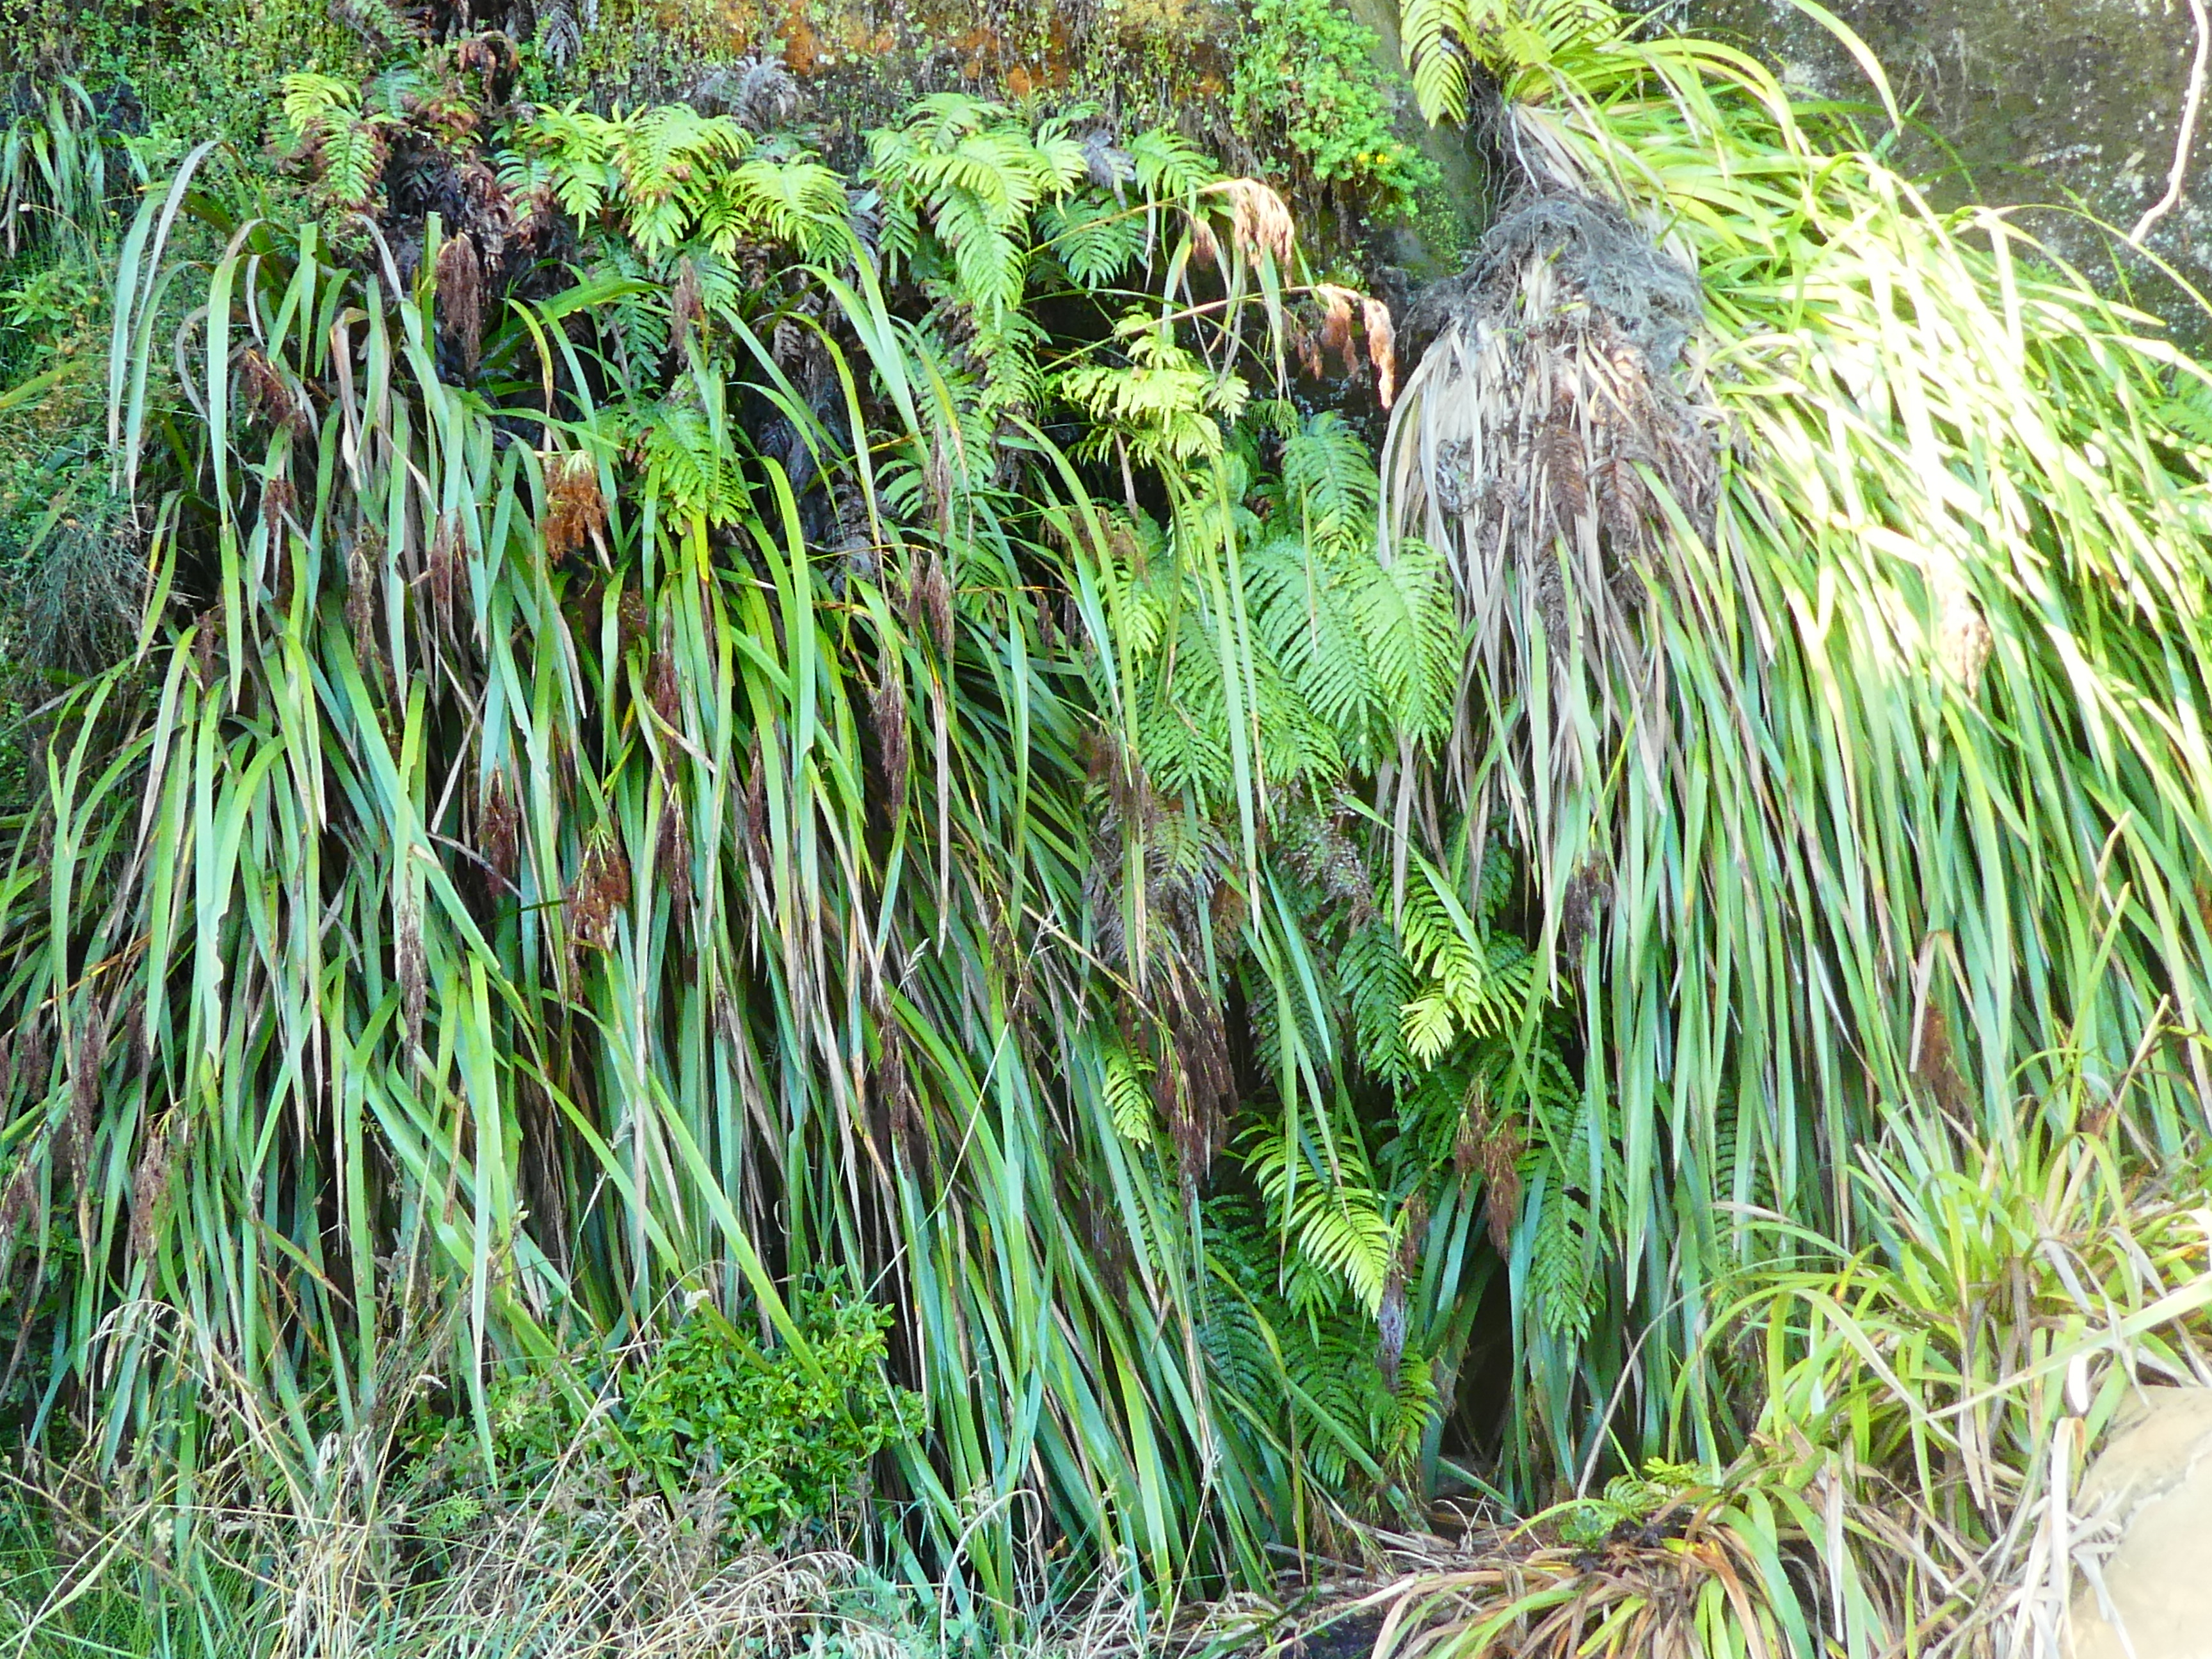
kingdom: Plantae
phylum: Tracheophyta
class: Polypodiopsida
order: Polypodiales
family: Blechnaceae
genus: Parablechnum
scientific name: Parablechnum triangularifolium
